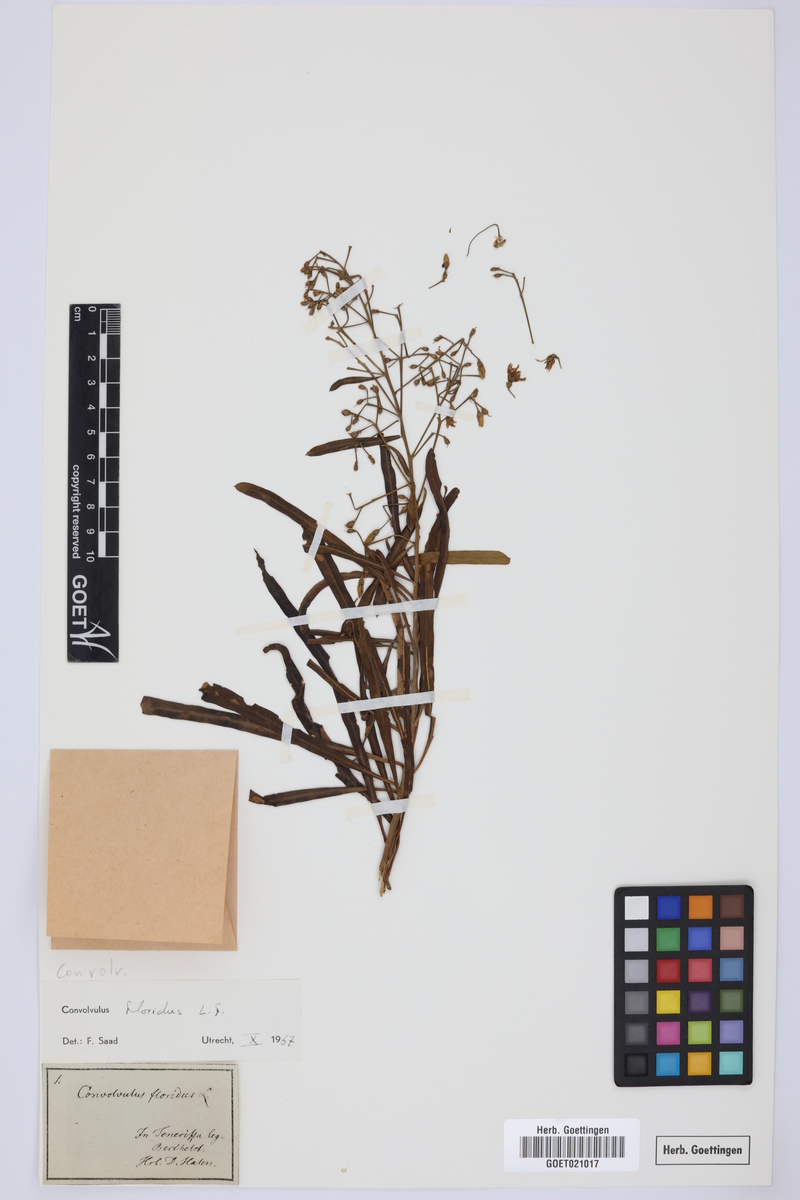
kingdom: Plantae
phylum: Tracheophyta
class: Magnoliopsida
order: Solanales
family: Convolvulaceae
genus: Convolvulus
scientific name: Convolvulus floridus
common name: Guadil
